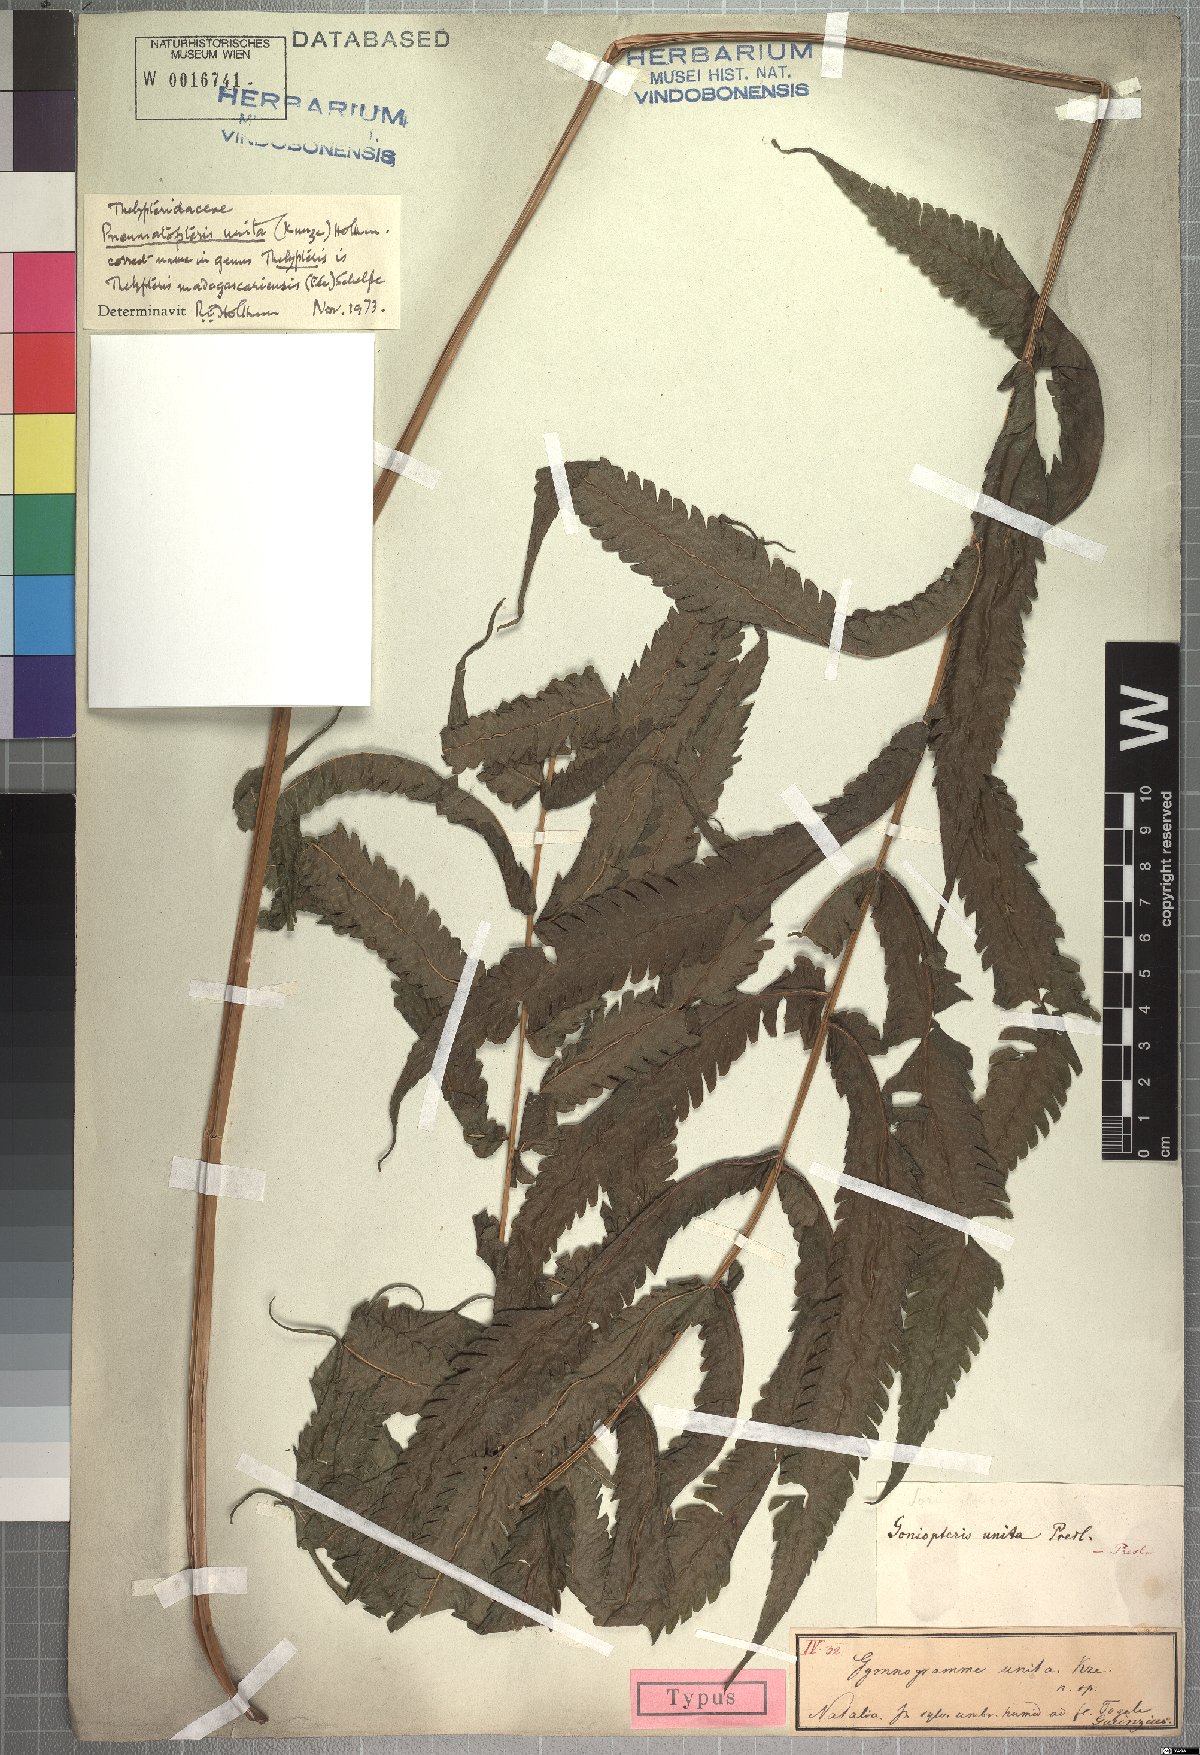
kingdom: Plantae
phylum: Tracheophyta
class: Polypodiopsida
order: Polypodiales
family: Thelypteridaceae
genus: Menisorus
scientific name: Menisorus unitus
